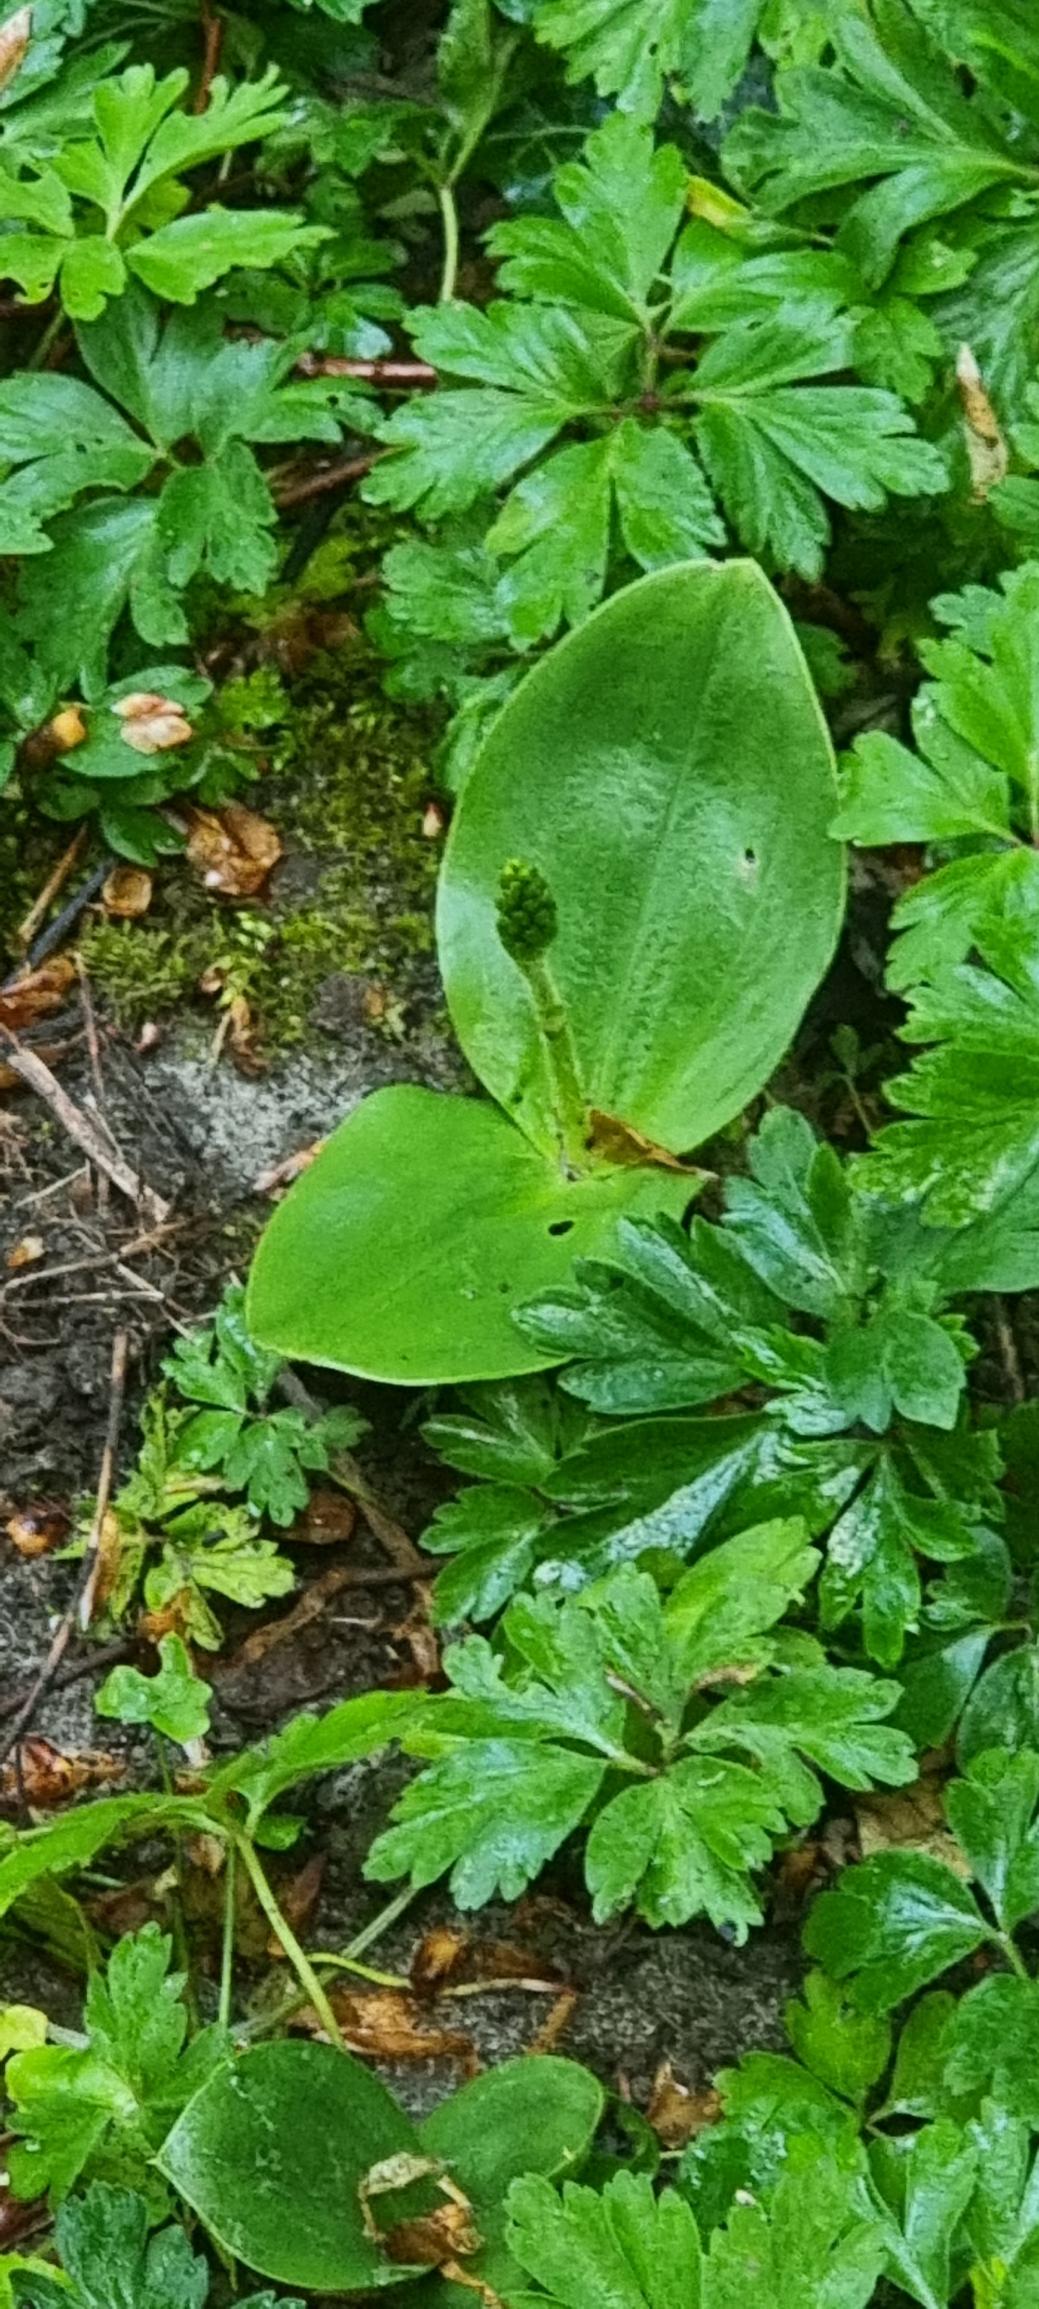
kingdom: Plantae
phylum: Tracheophyta
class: Liliopsida
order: Asparagales
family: Orchidaceae
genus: Neottia
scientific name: Neottia ovata
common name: Ægbladet fliglæbe
